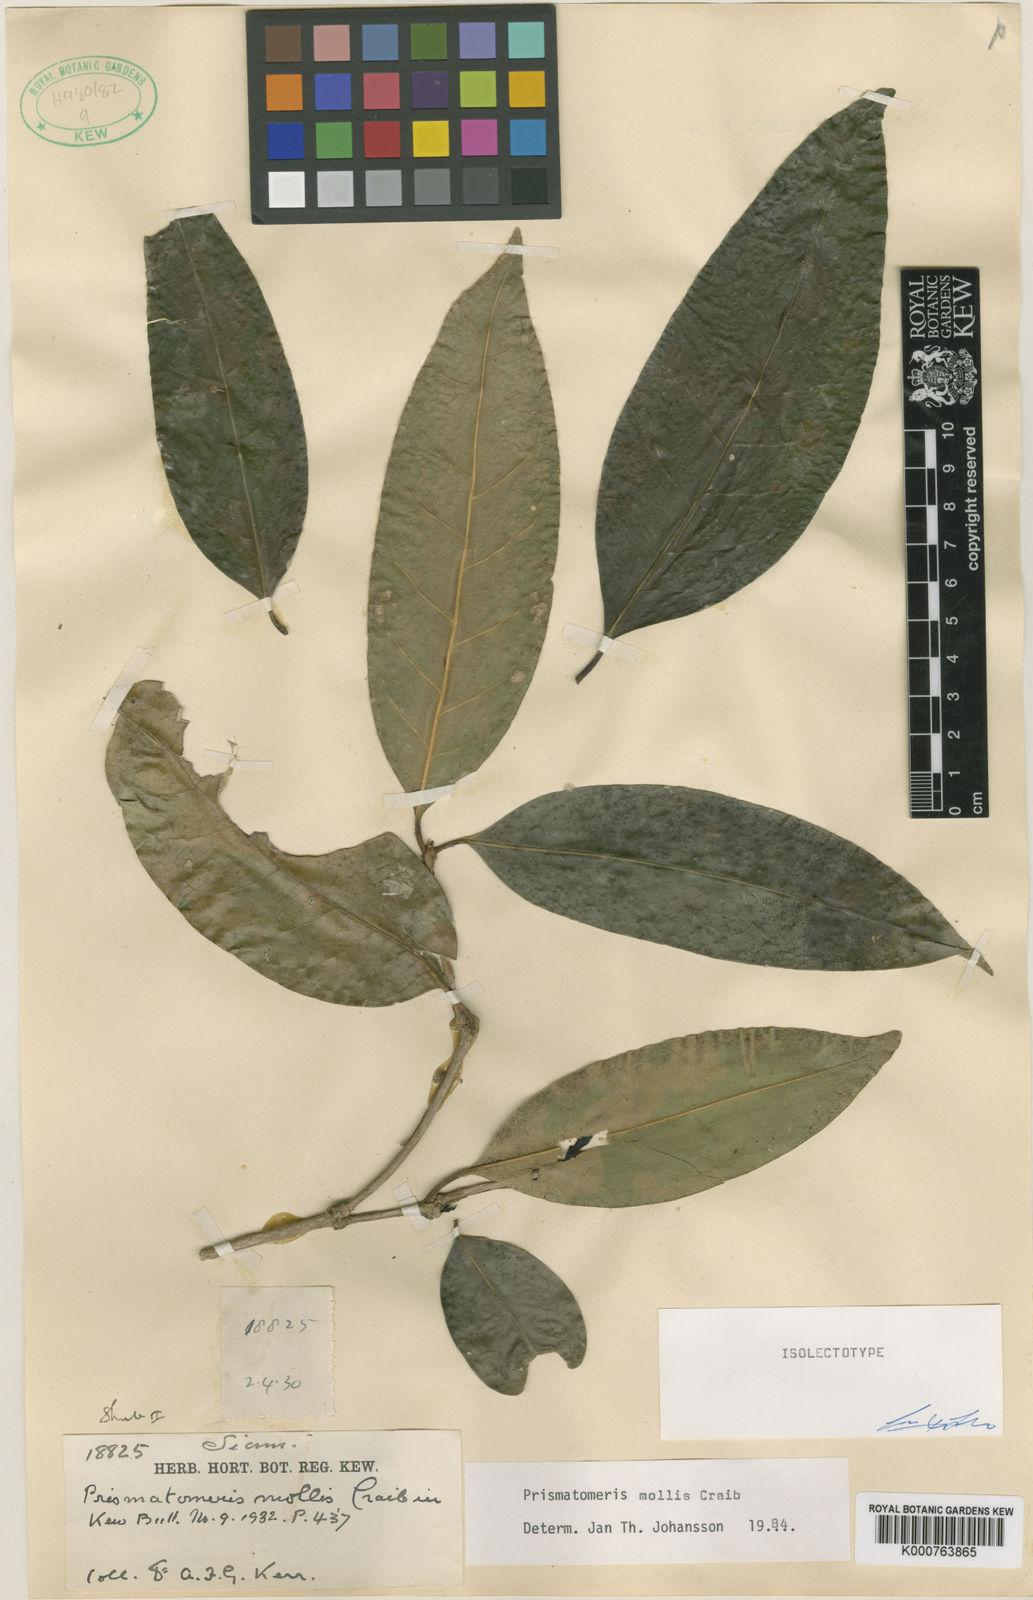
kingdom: Plantae
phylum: Tracheophyta
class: Magnoliopsida
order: Gentianales
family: Rubiaceae
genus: Prismatomeris
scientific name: Prismatomeris mollis
